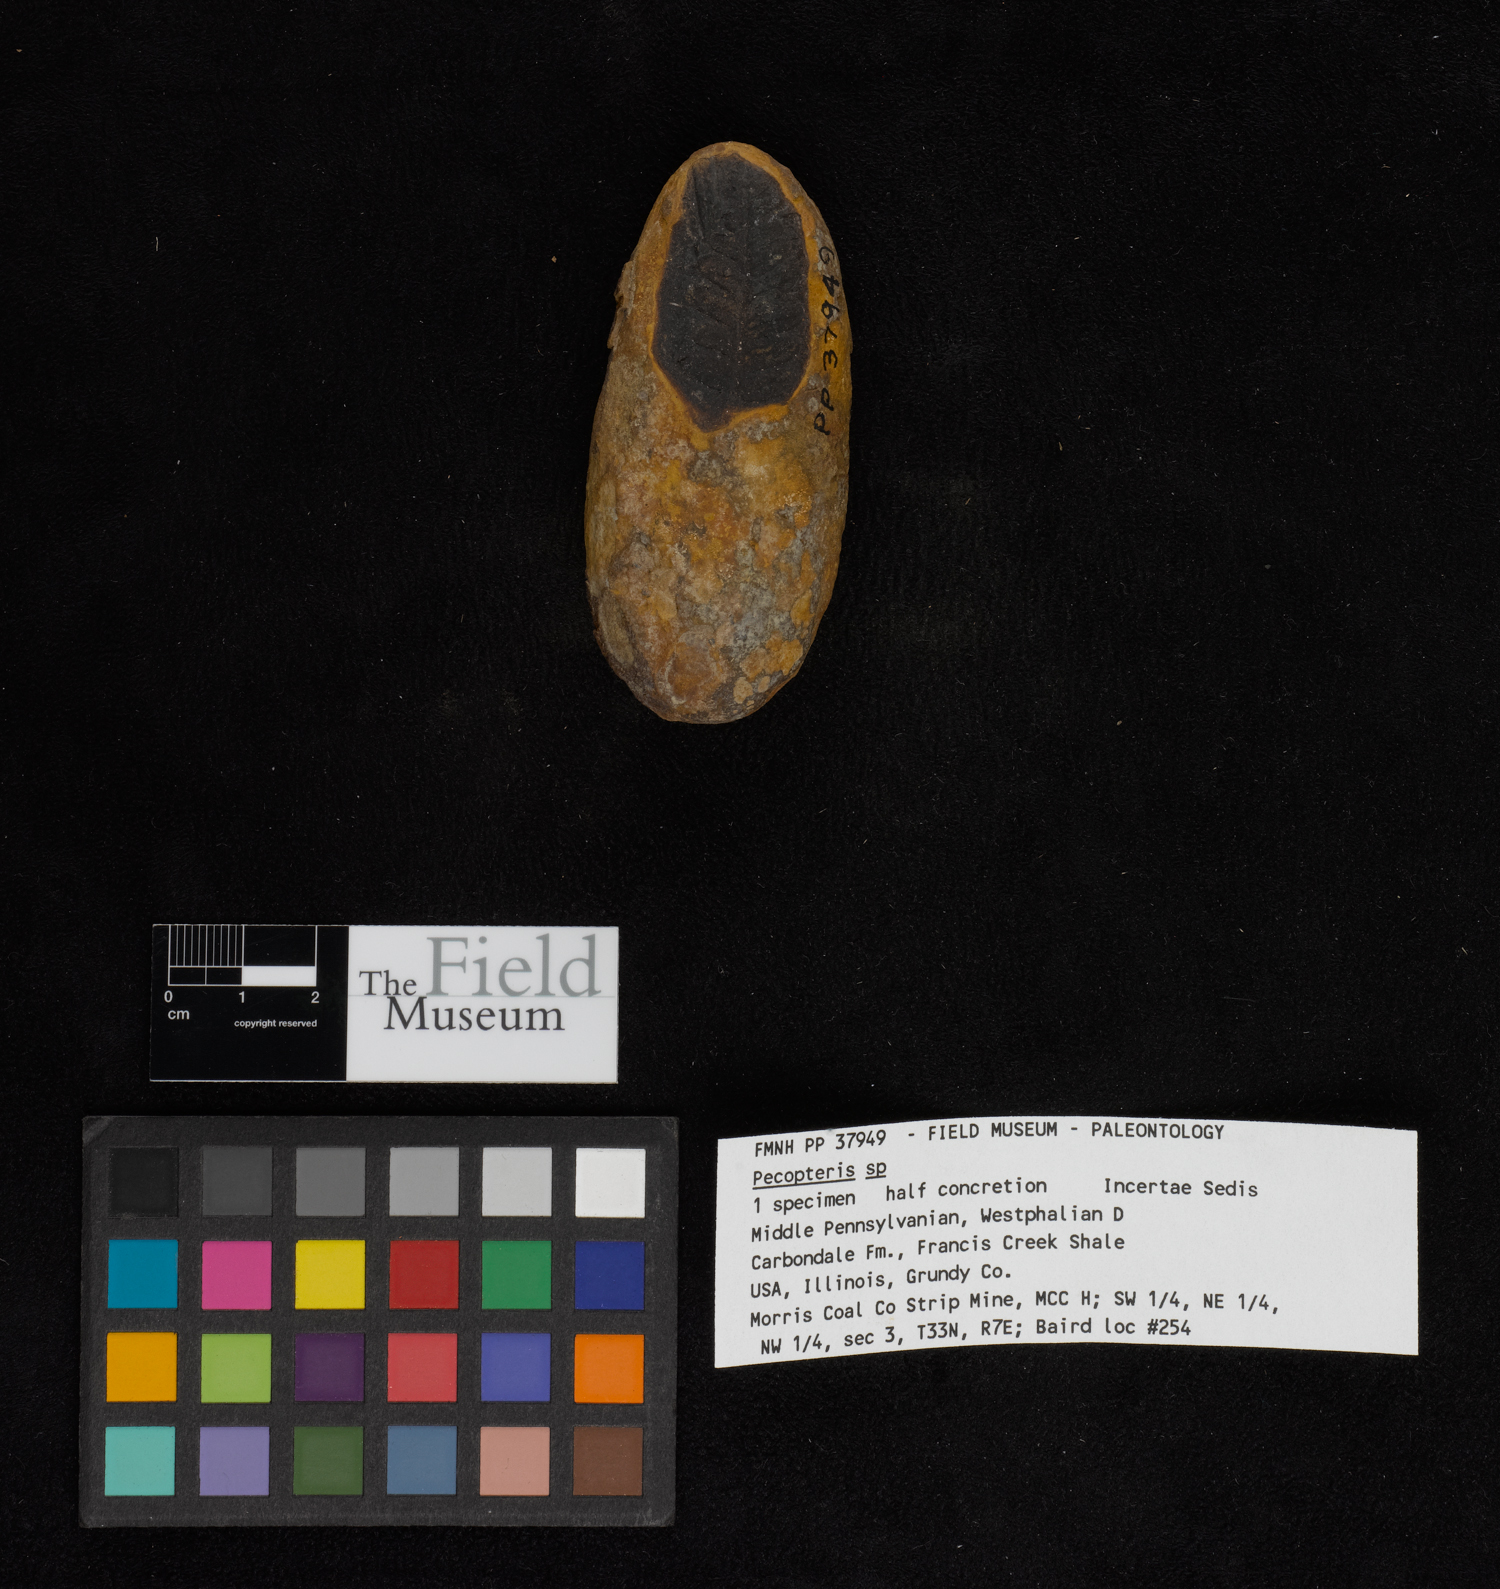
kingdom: Plantae
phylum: Tracheophyta
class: Polypodiopsida
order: Marattiales
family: Asterothecaceae
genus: Pecopteris
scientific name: Pecopteris
